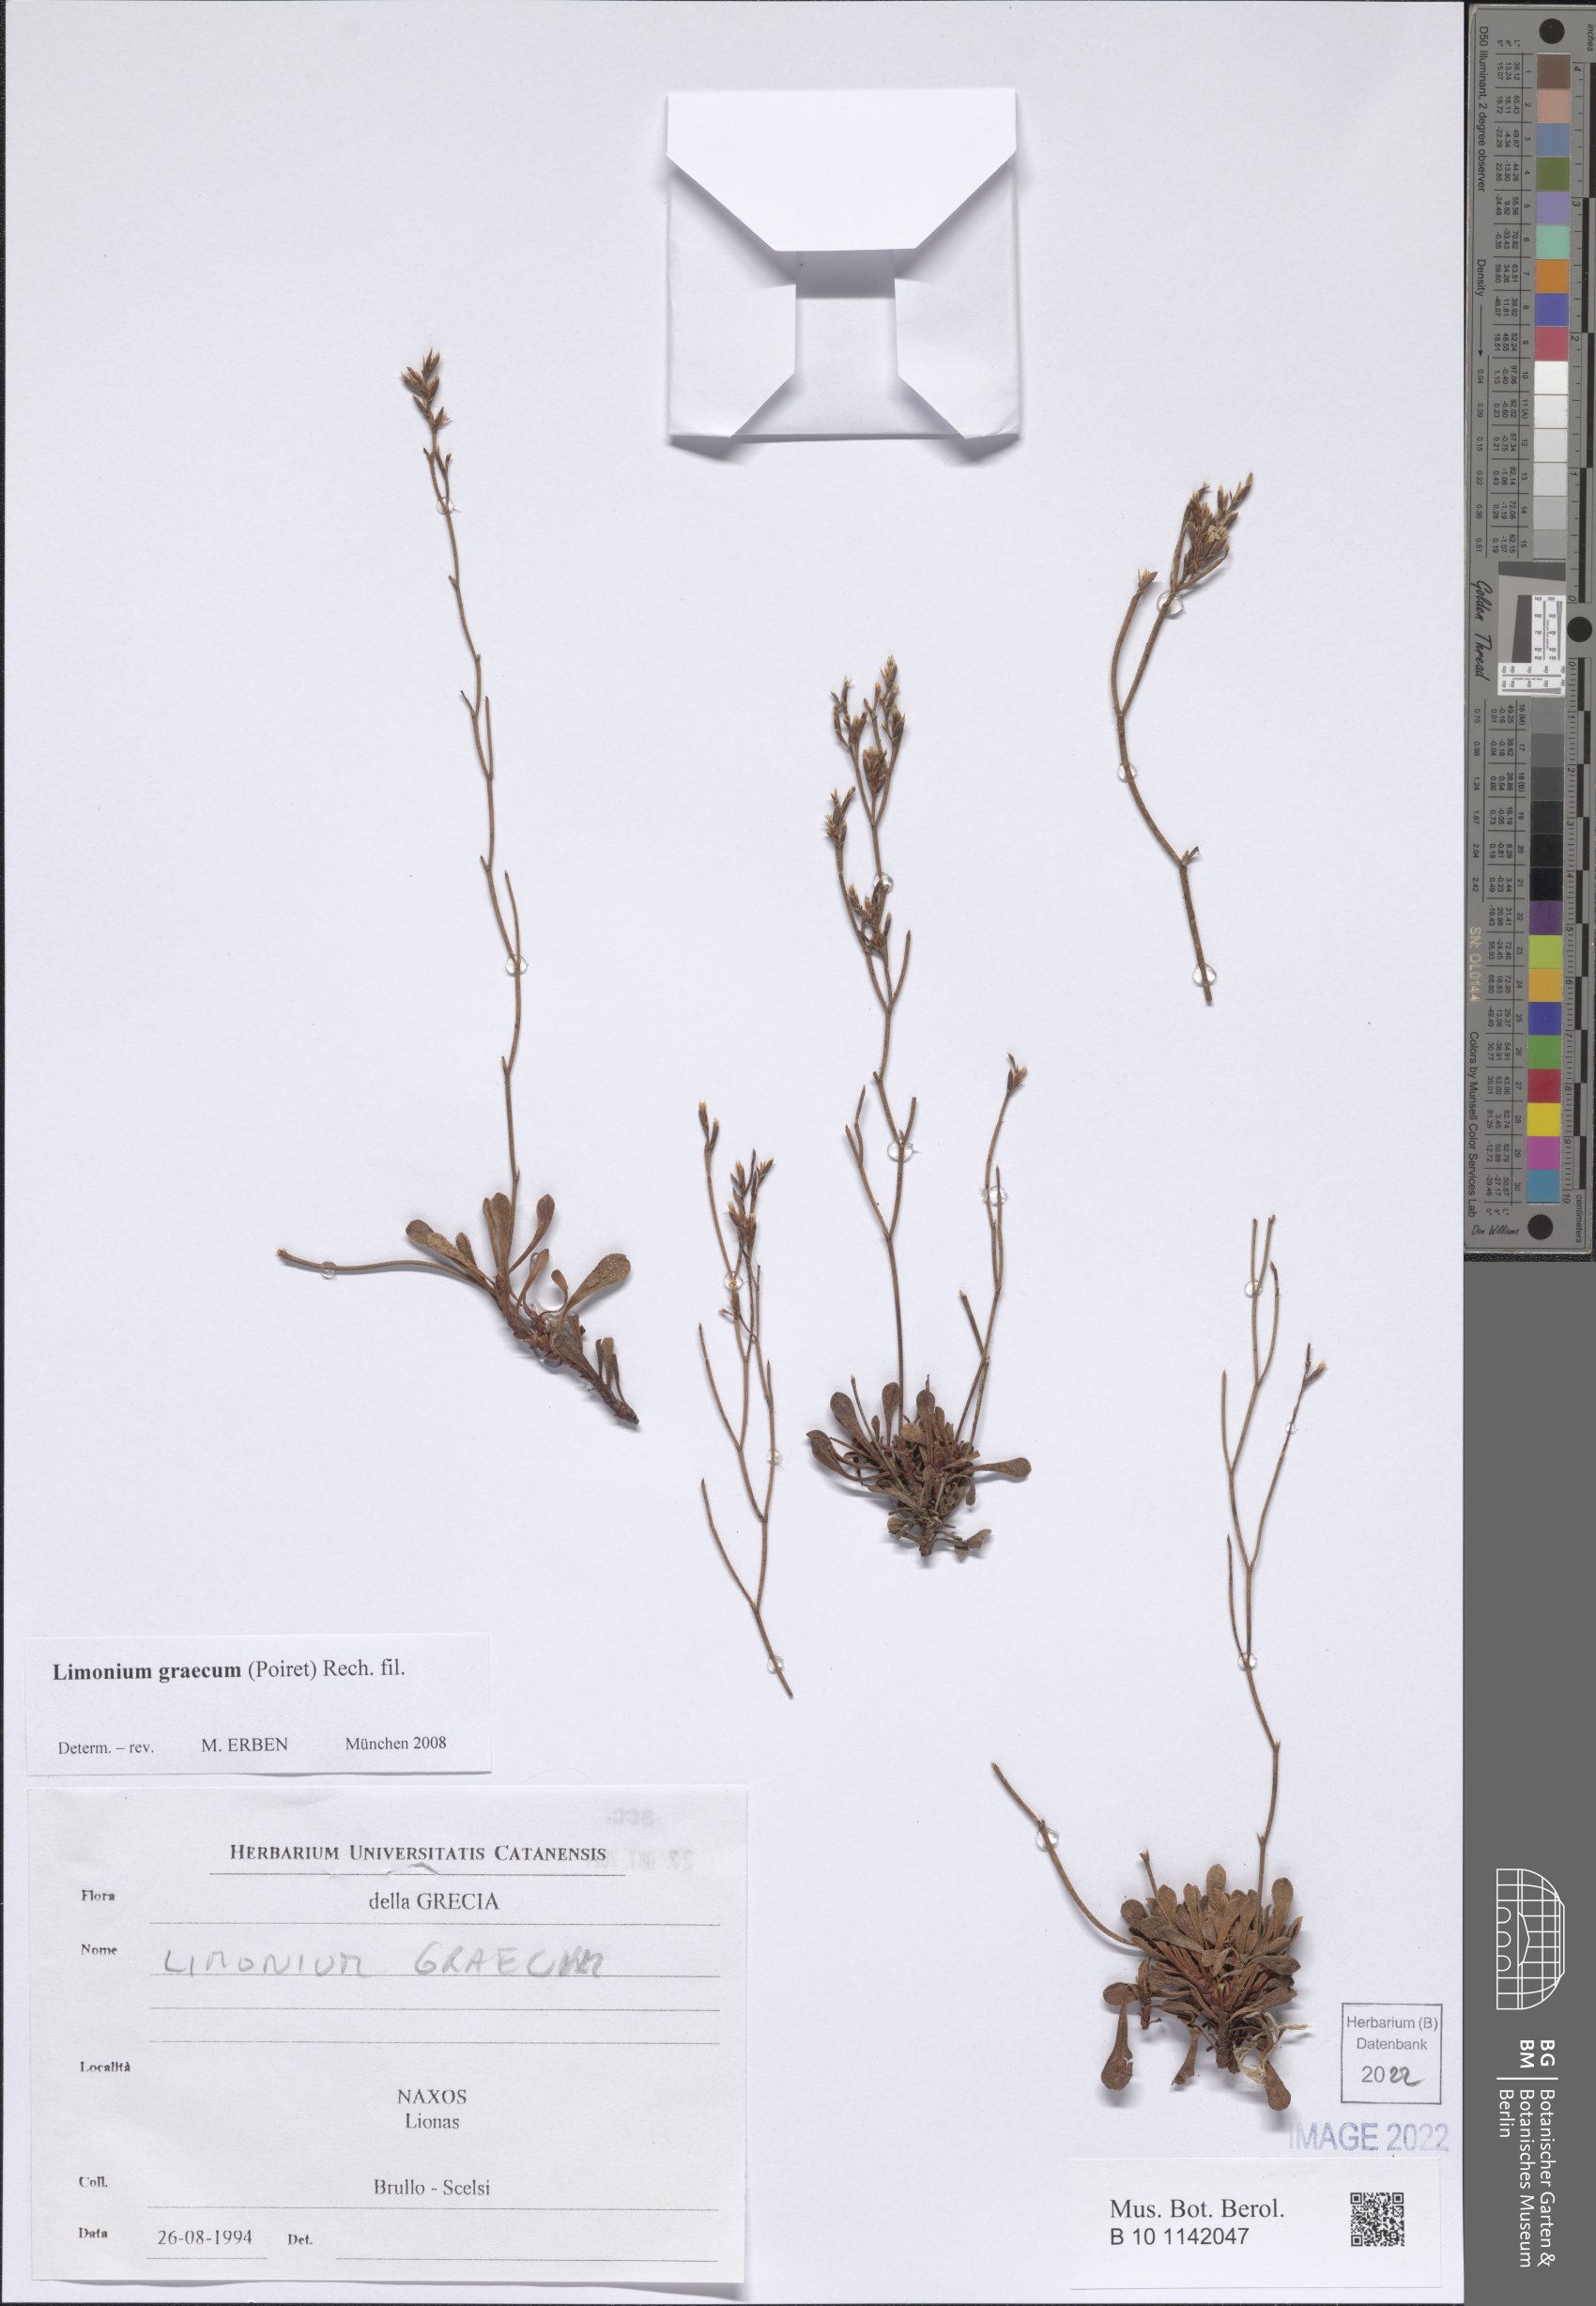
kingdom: Plantae
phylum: Tracheophyta
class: Magnoliopsida
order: Caryophyllales
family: Plumbaginaceae
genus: Limonium
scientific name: Limonium graecum
